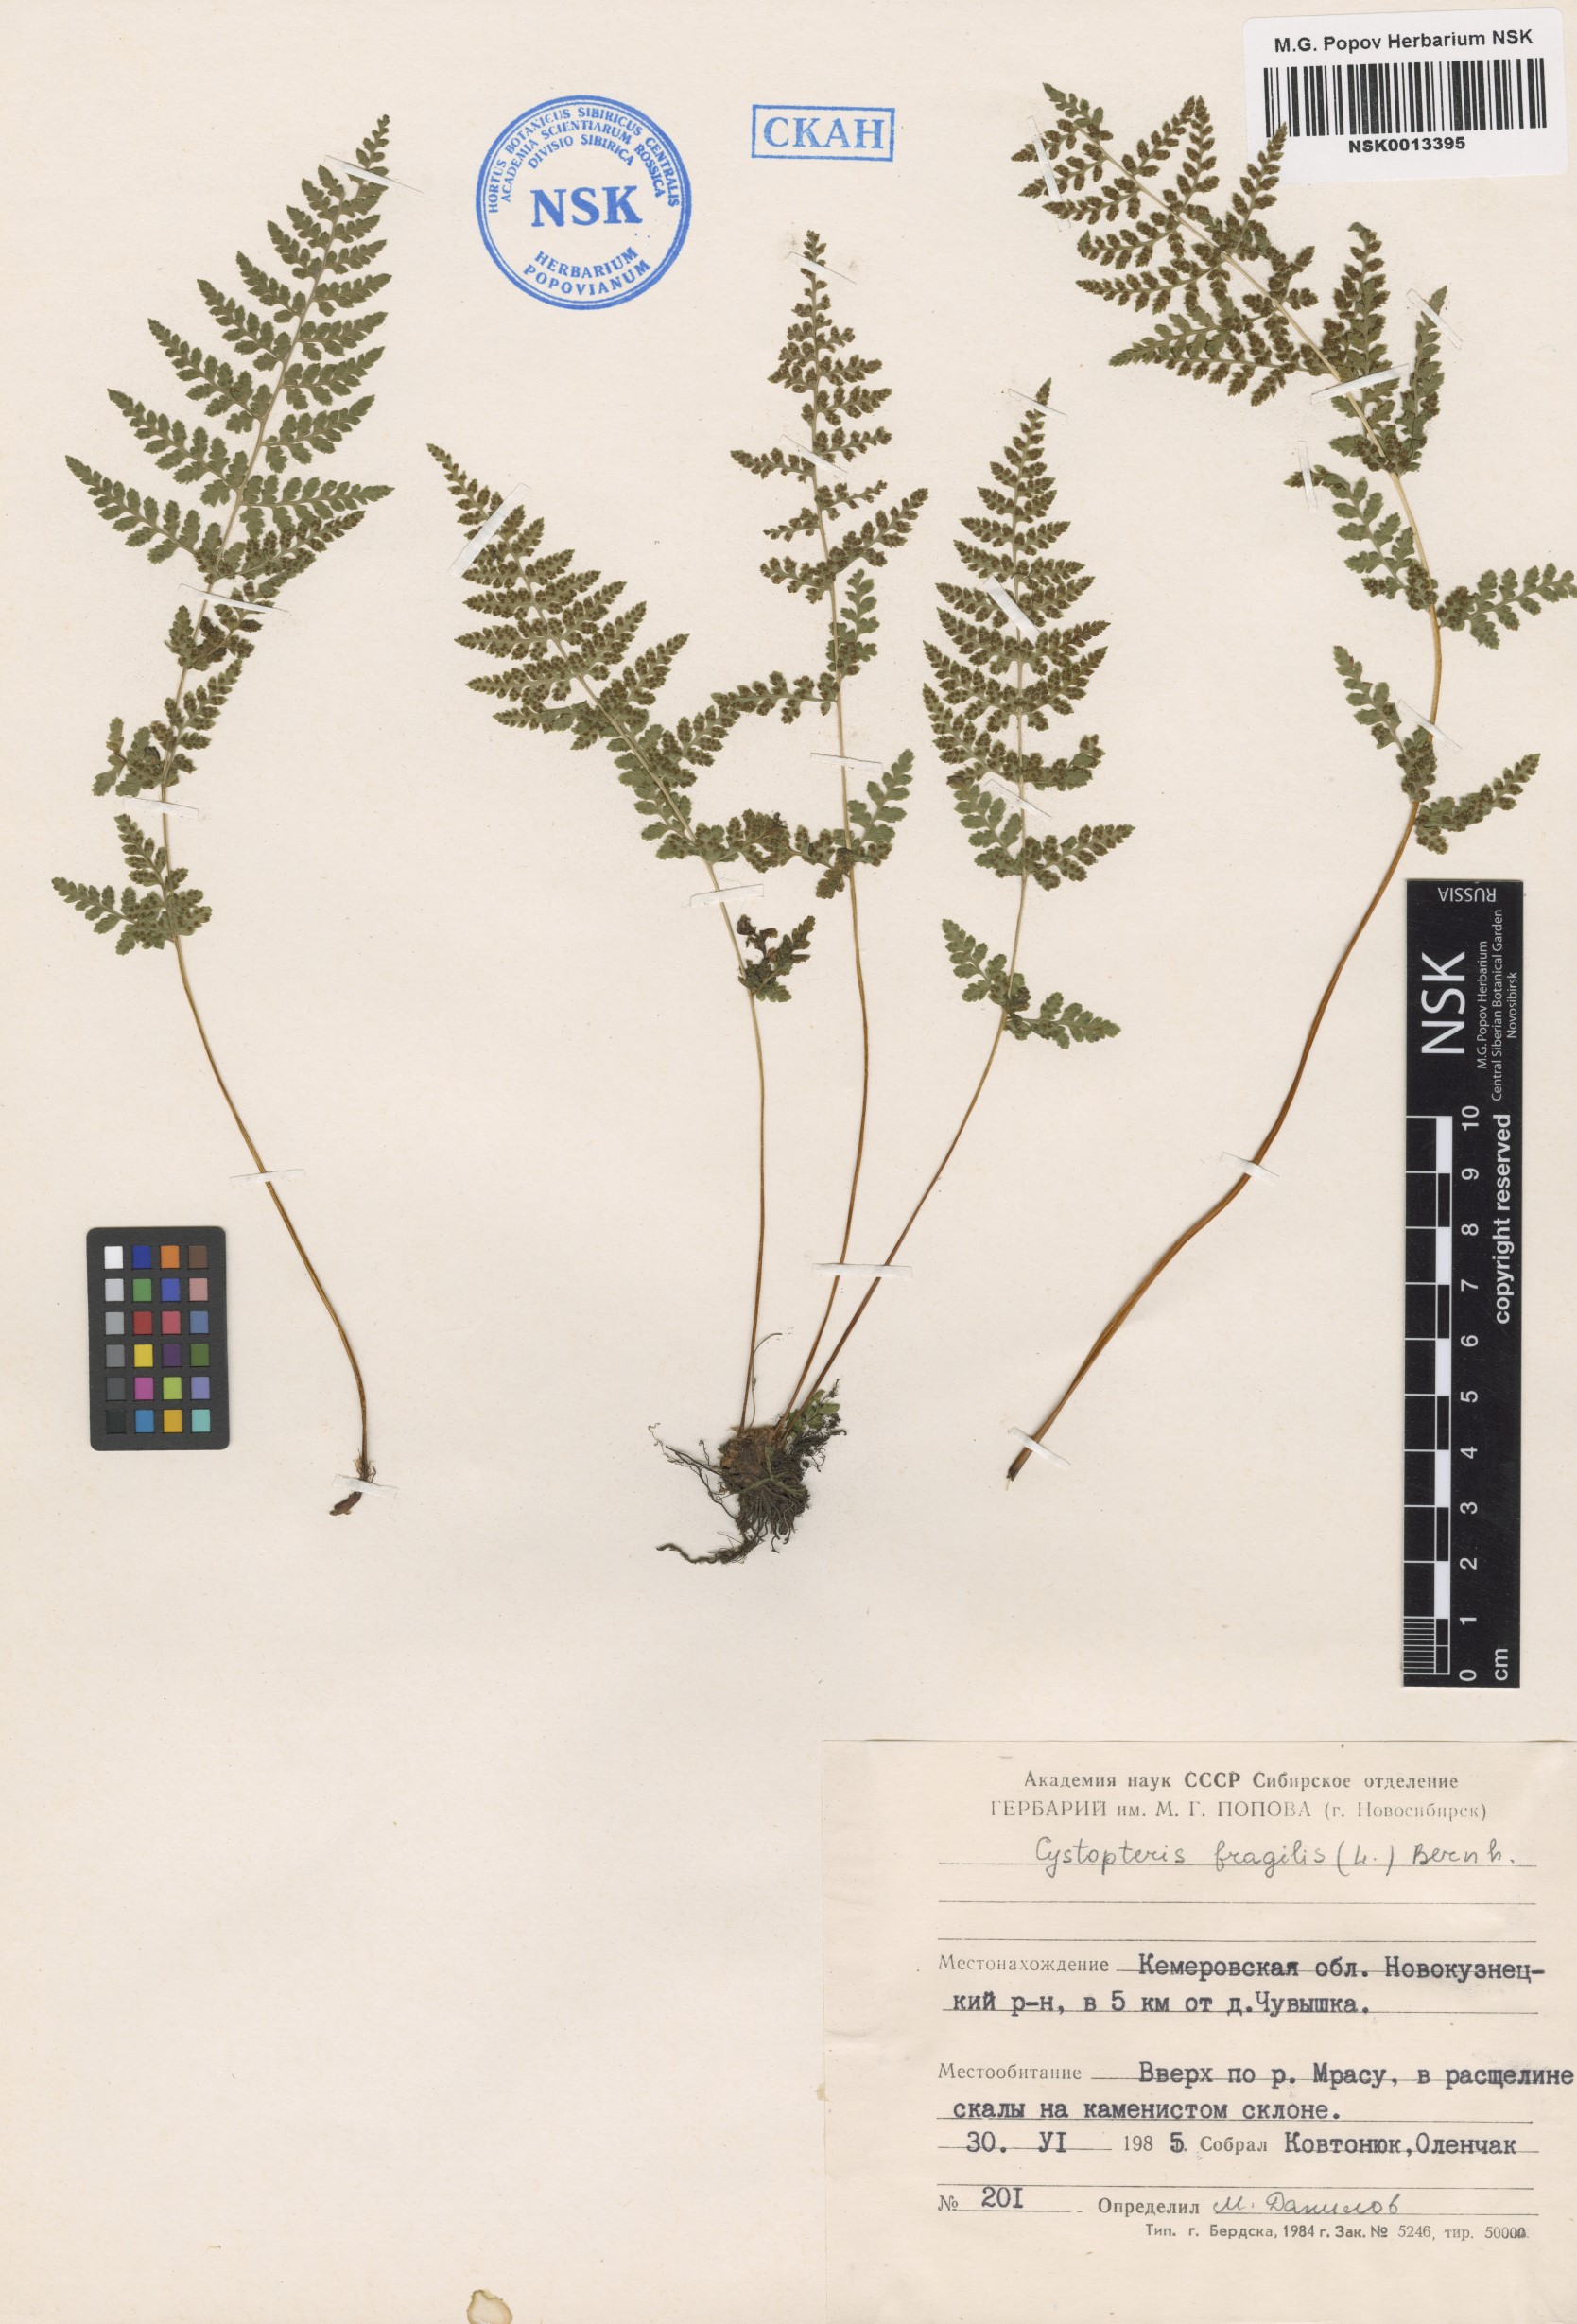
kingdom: Plantae
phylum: Tracheophyta
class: Polypodiopsida
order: Polypodiales
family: Cystopteridaceae
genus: Cystopteris
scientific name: Cystopteris fragilis
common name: Brittle bladder fern
